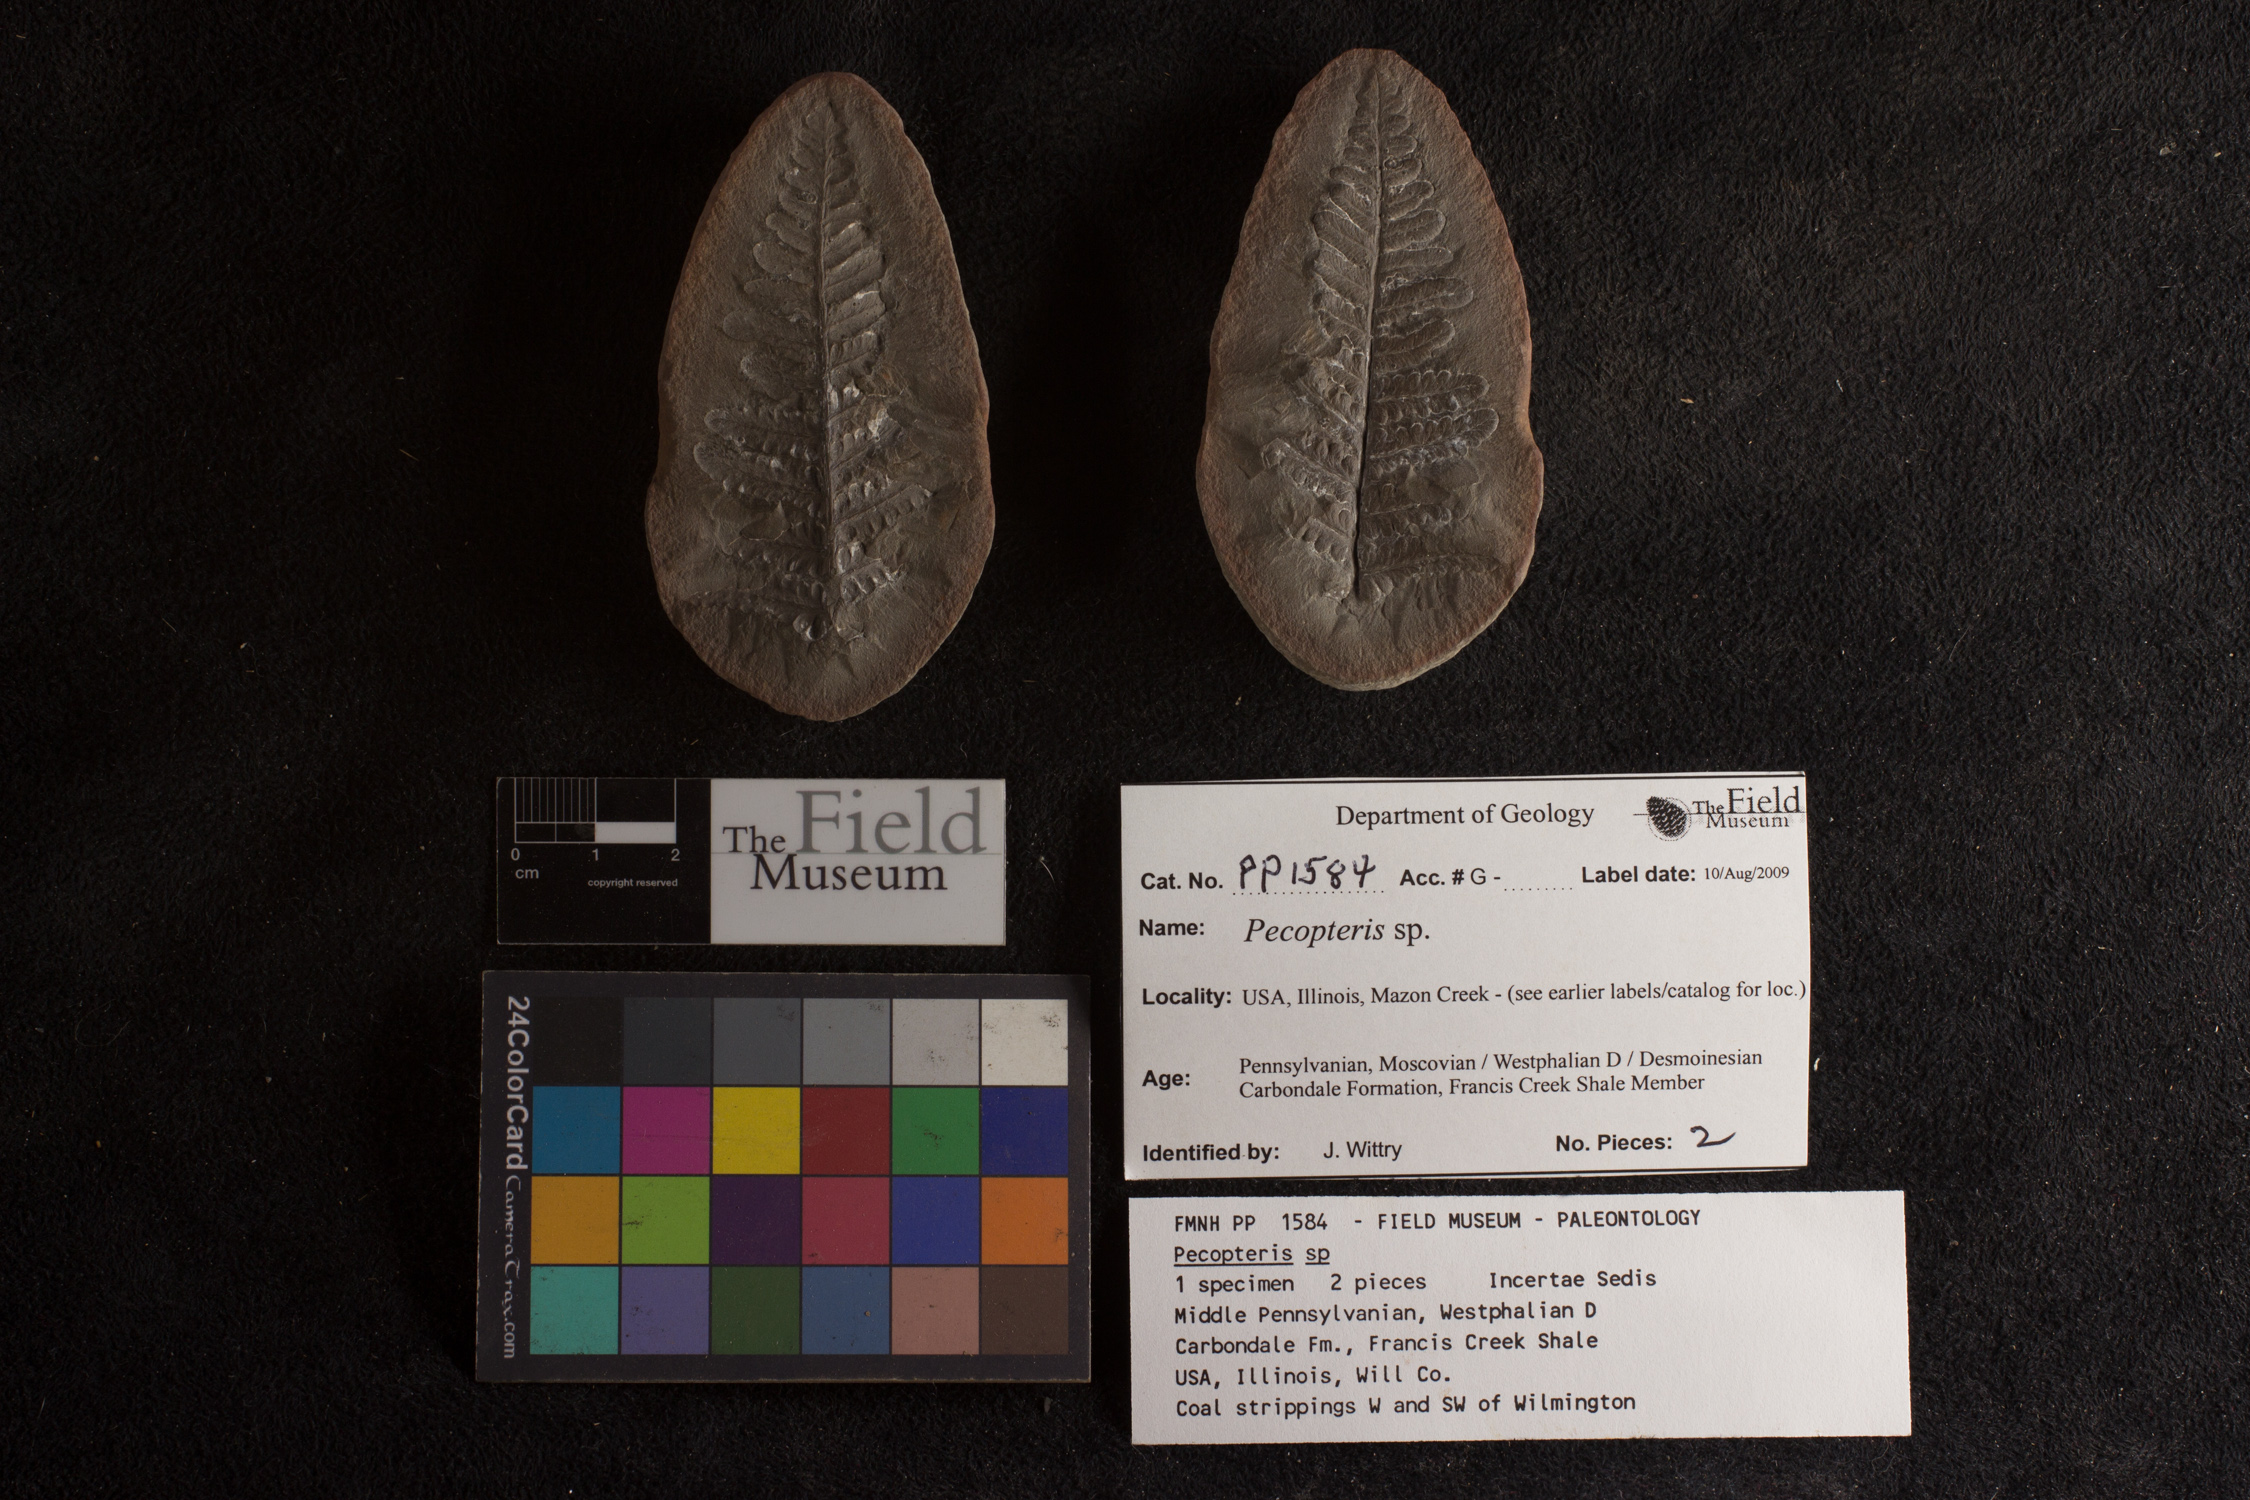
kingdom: Plantae
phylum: Tracheophyta
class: Polypodiopsida
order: Marattiales
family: Asterothecaceae
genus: Pecopteris
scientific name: Pecopteris
